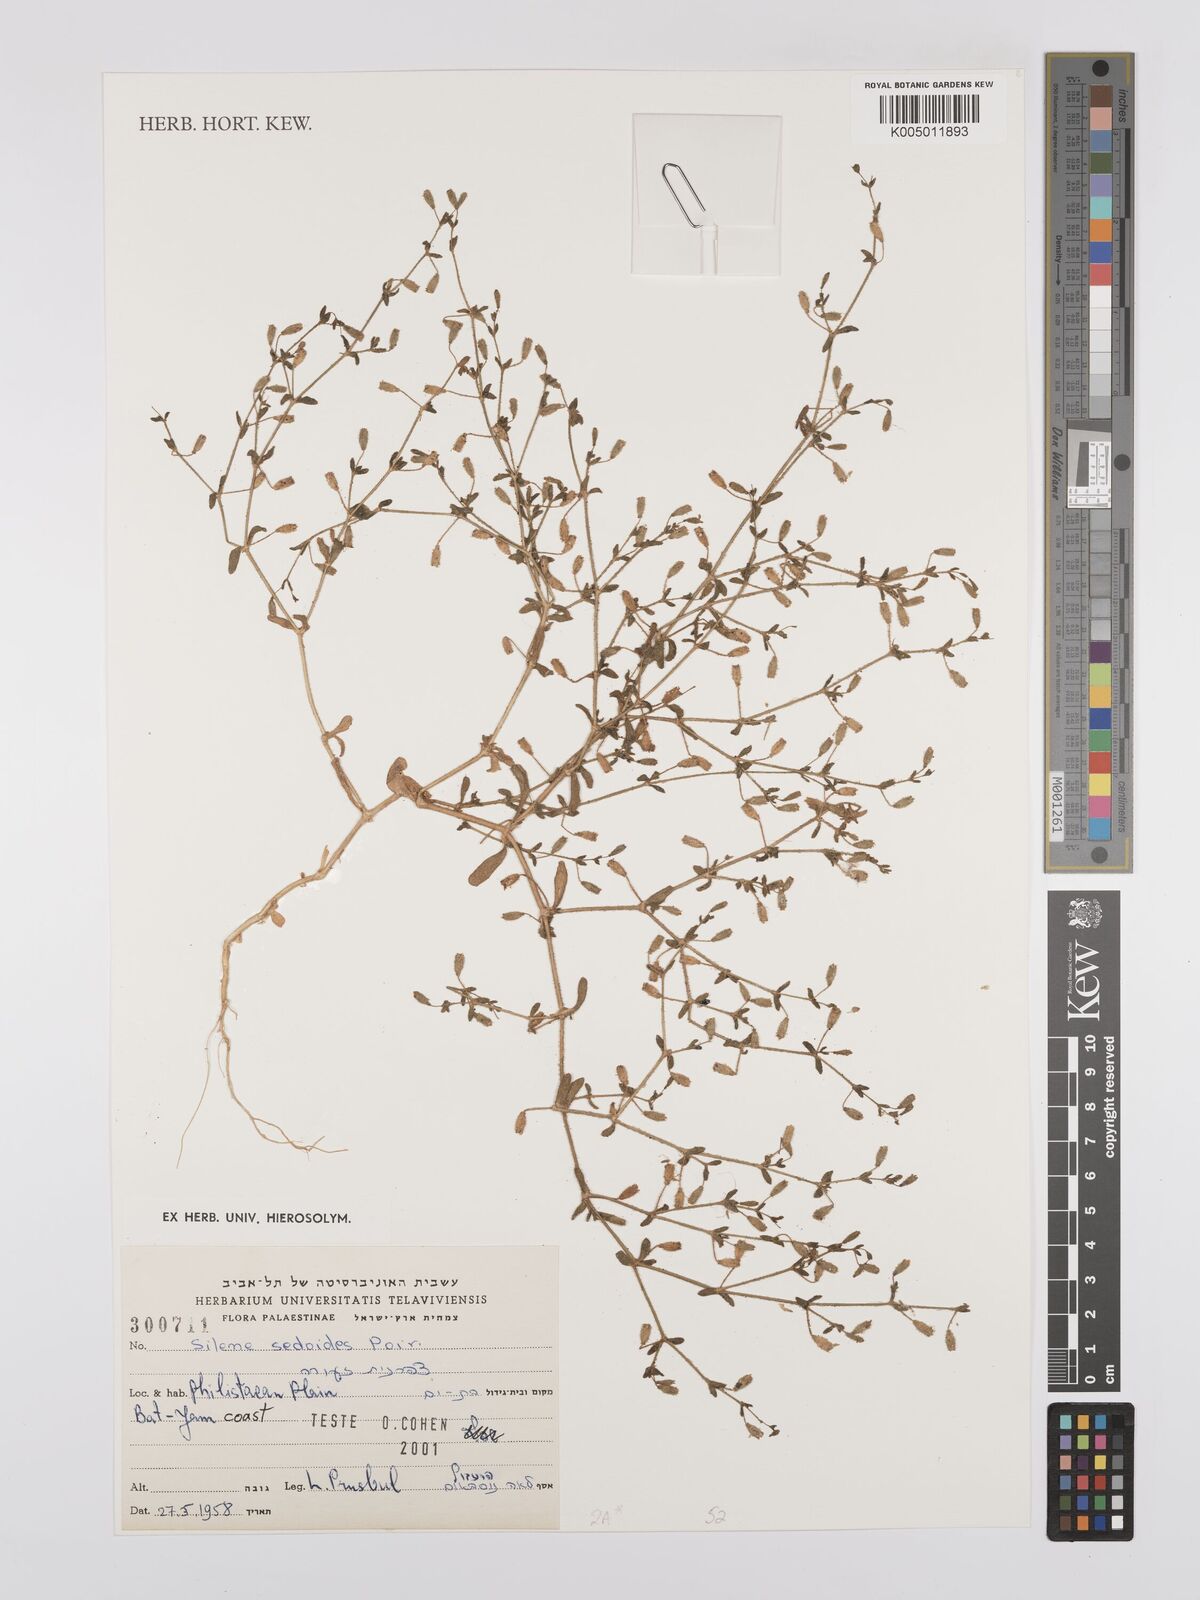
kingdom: Plantae
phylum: Tracheophyta
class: Magnoliopsida
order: Caryophyllales
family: Caryophyllaceae
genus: Silene
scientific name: Silene sedoides
